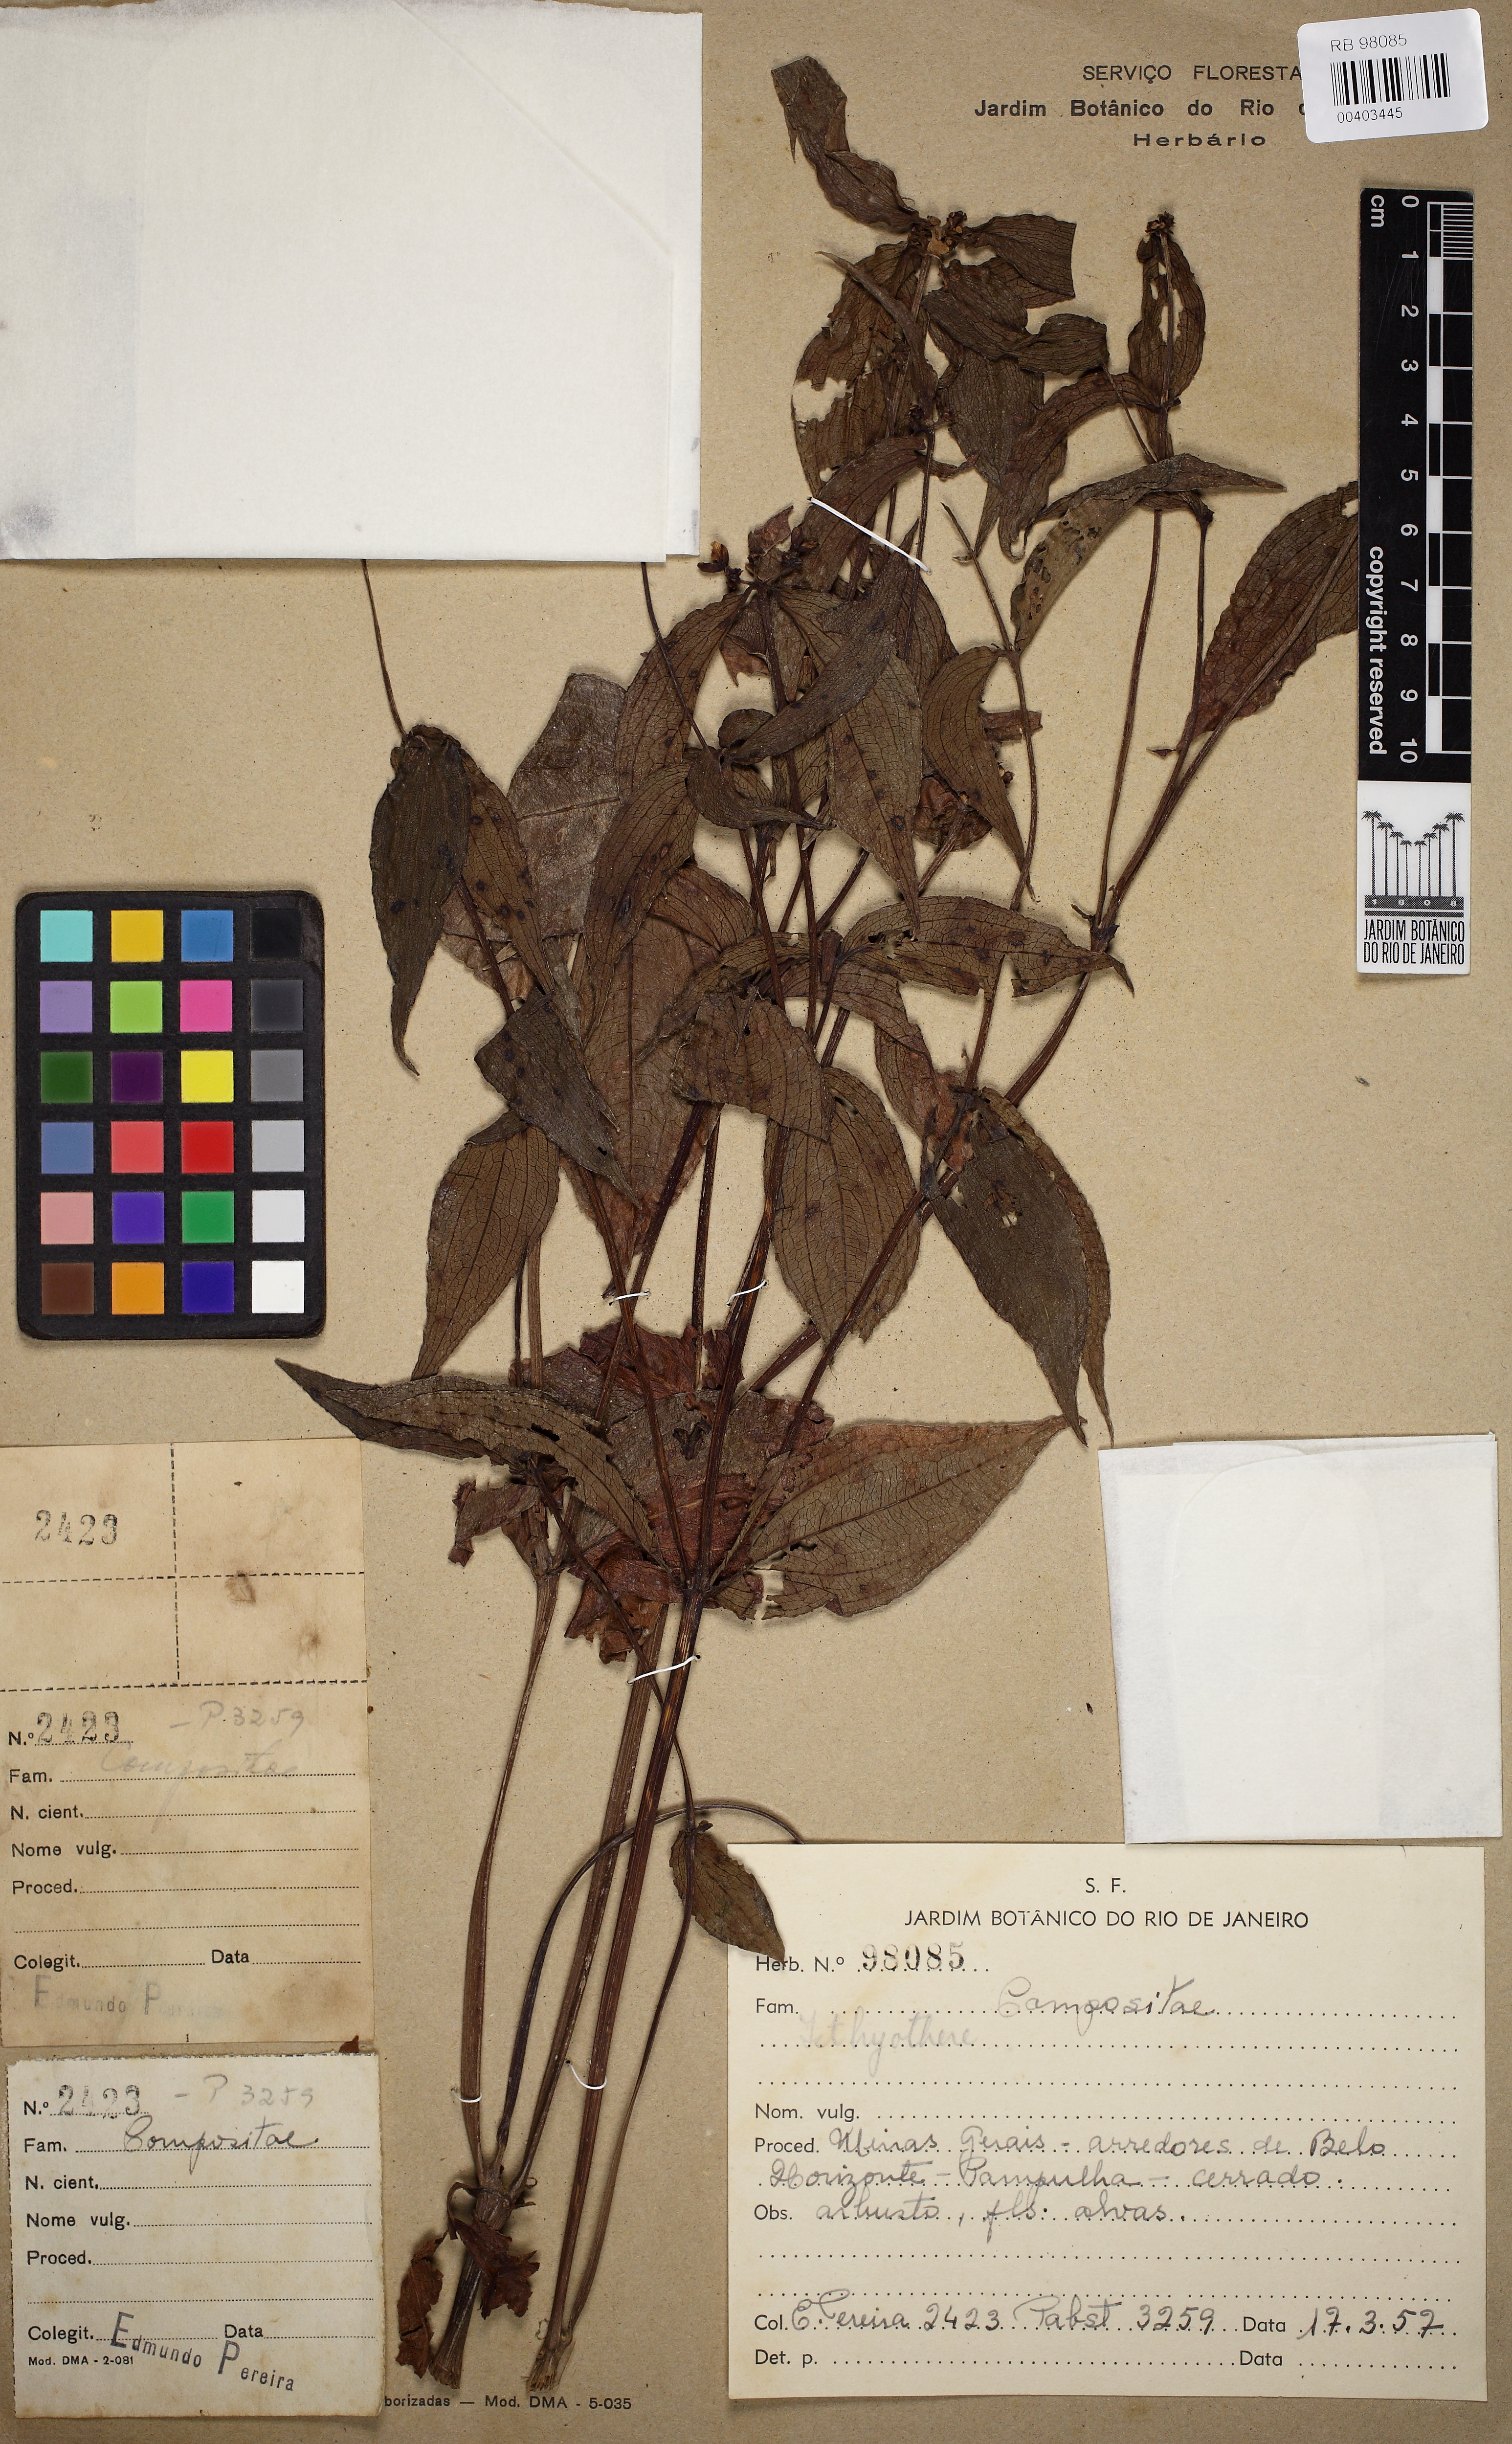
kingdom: Plantae
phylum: Tracheophyta
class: Magnoliopsida
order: Asterales
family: Asteraceae
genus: Ichthyothere
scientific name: Ichthyothere
